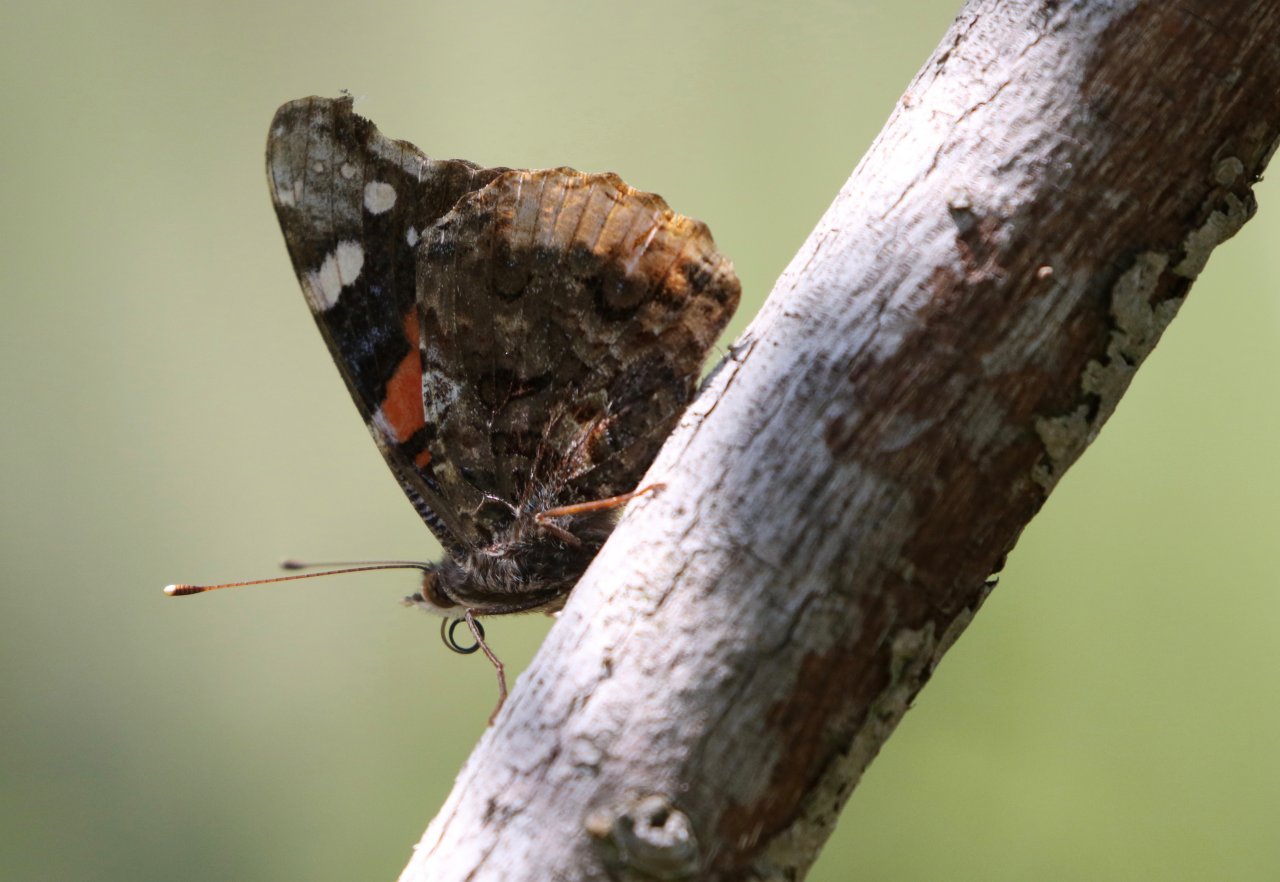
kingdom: Animalia
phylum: Arthropoda
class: Insecta
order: Lepidoptera
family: Nymphalidae
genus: Vanessa
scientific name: Vanessa atalanta
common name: Red Admiral
